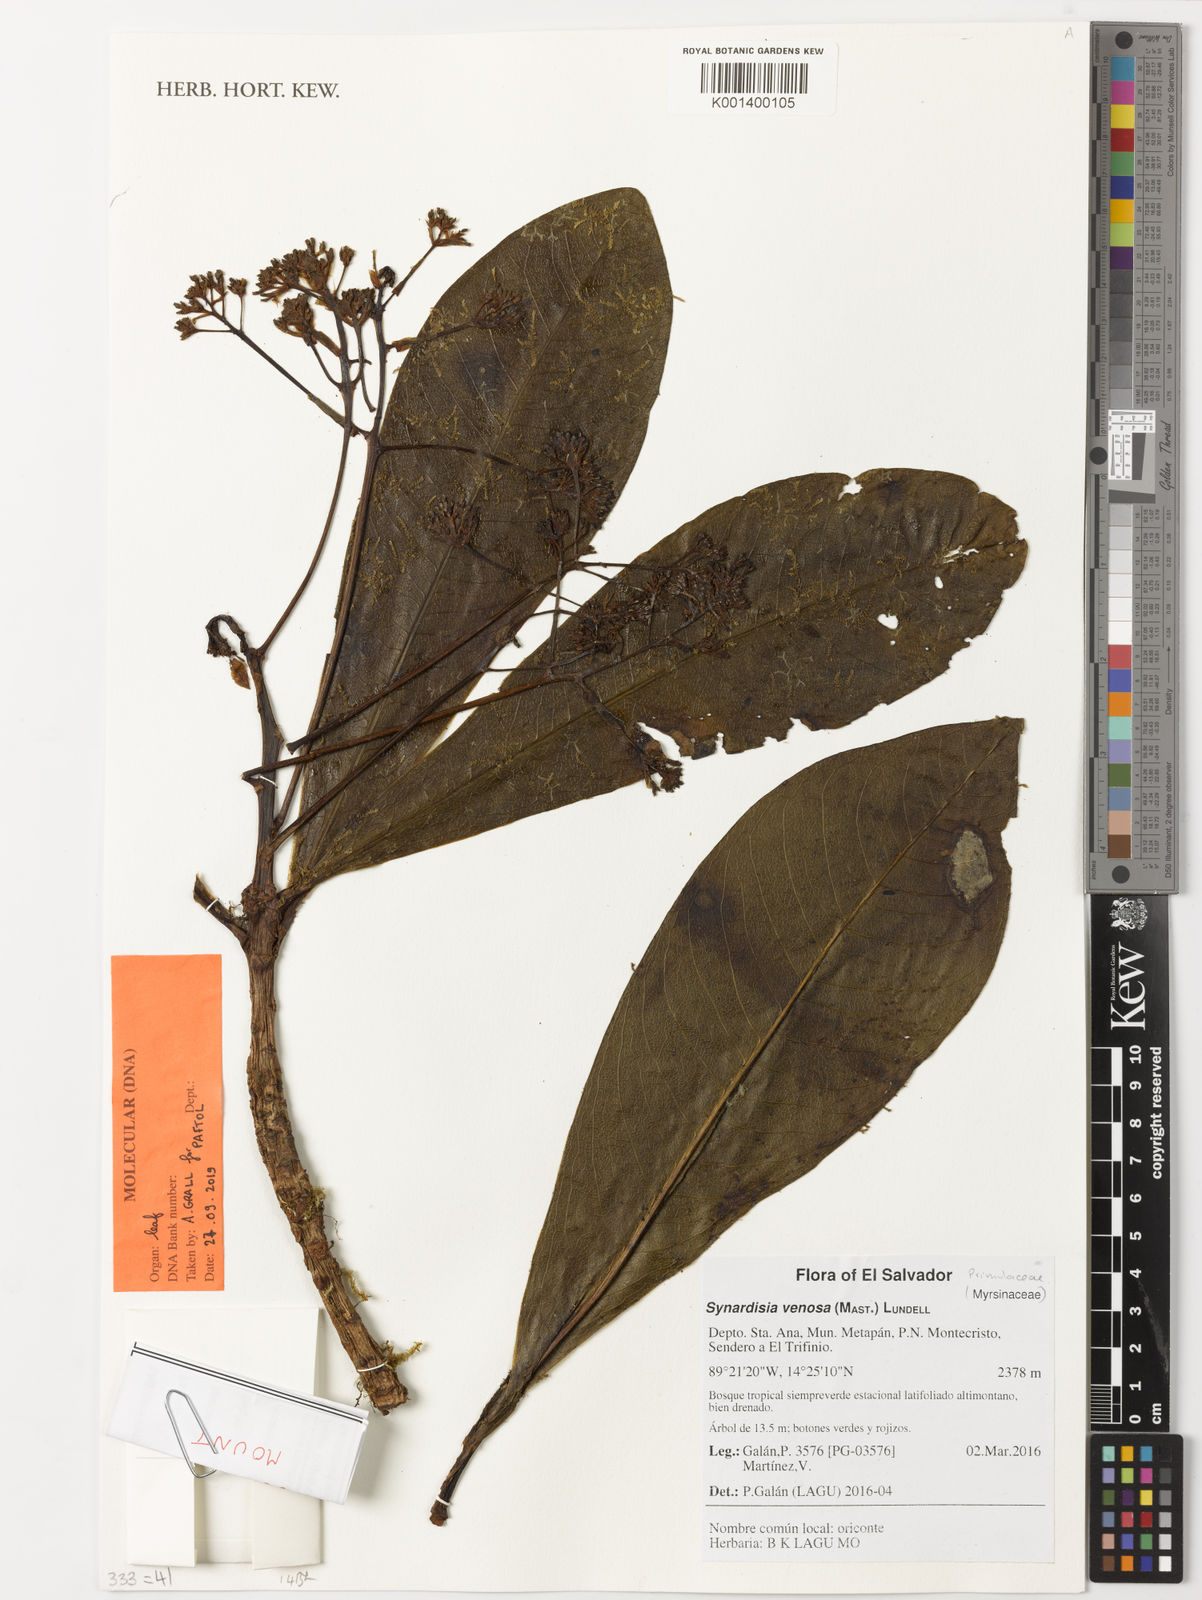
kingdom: Plantae
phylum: Tracheophyta
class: Magnoliopsida
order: Ericales
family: Primulaceae
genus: Ardisia
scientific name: Ardisia venosa
